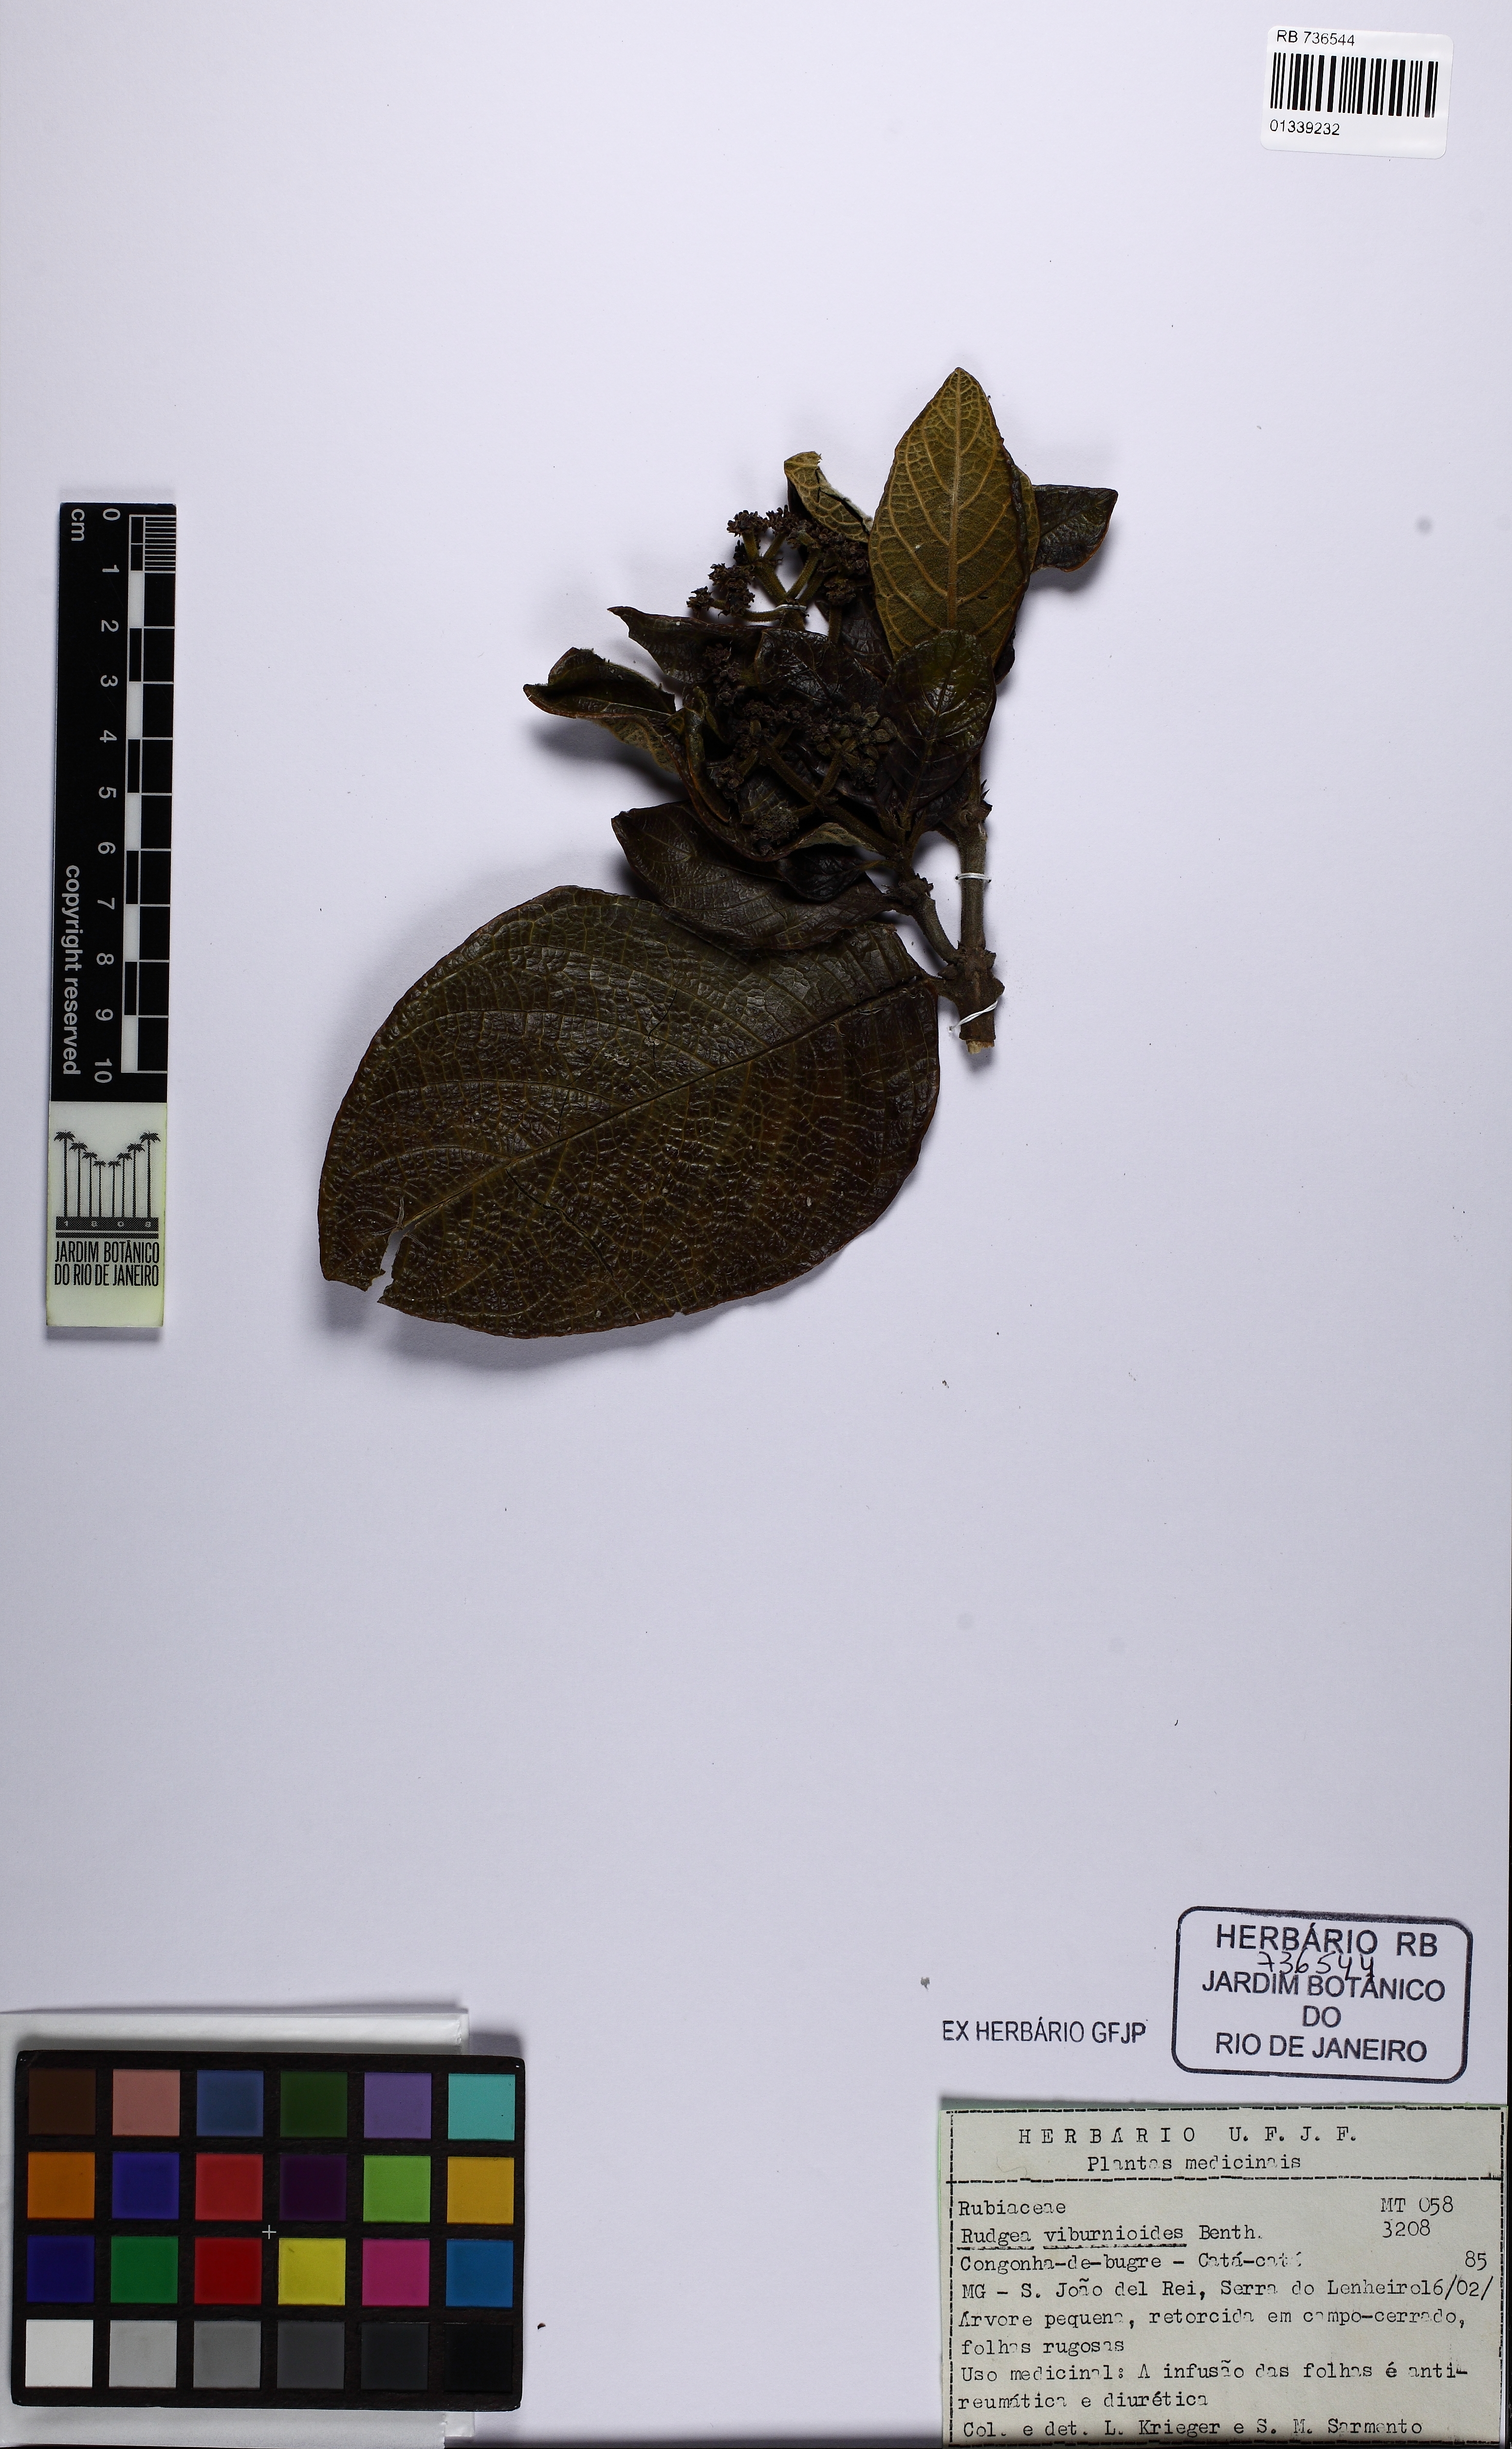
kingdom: Plantae
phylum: Tracheophyta
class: Magnoliopsida
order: Gentianales
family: Rubiaceae
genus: Rudgea
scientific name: Rudgea viburnoides
